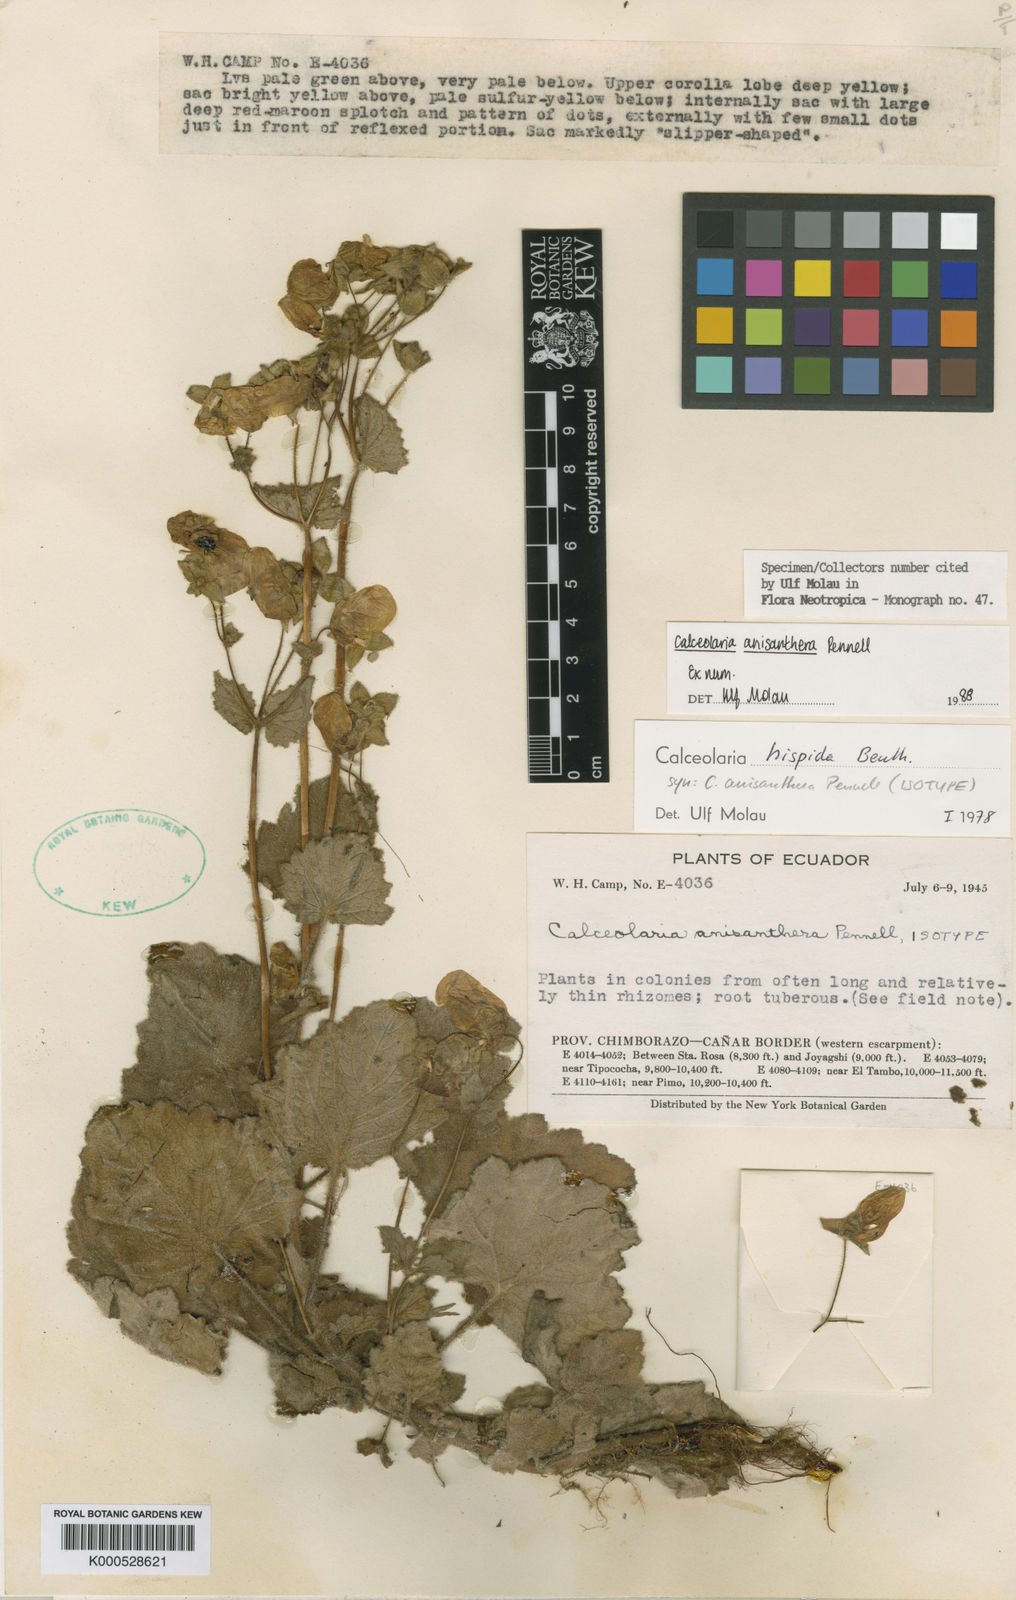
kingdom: Plantae
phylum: Tracheophyta
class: Magnoliopsida
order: Lamiales
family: Calceolariaceae
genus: Calceolaria
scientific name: Calceolaria anisanthera
